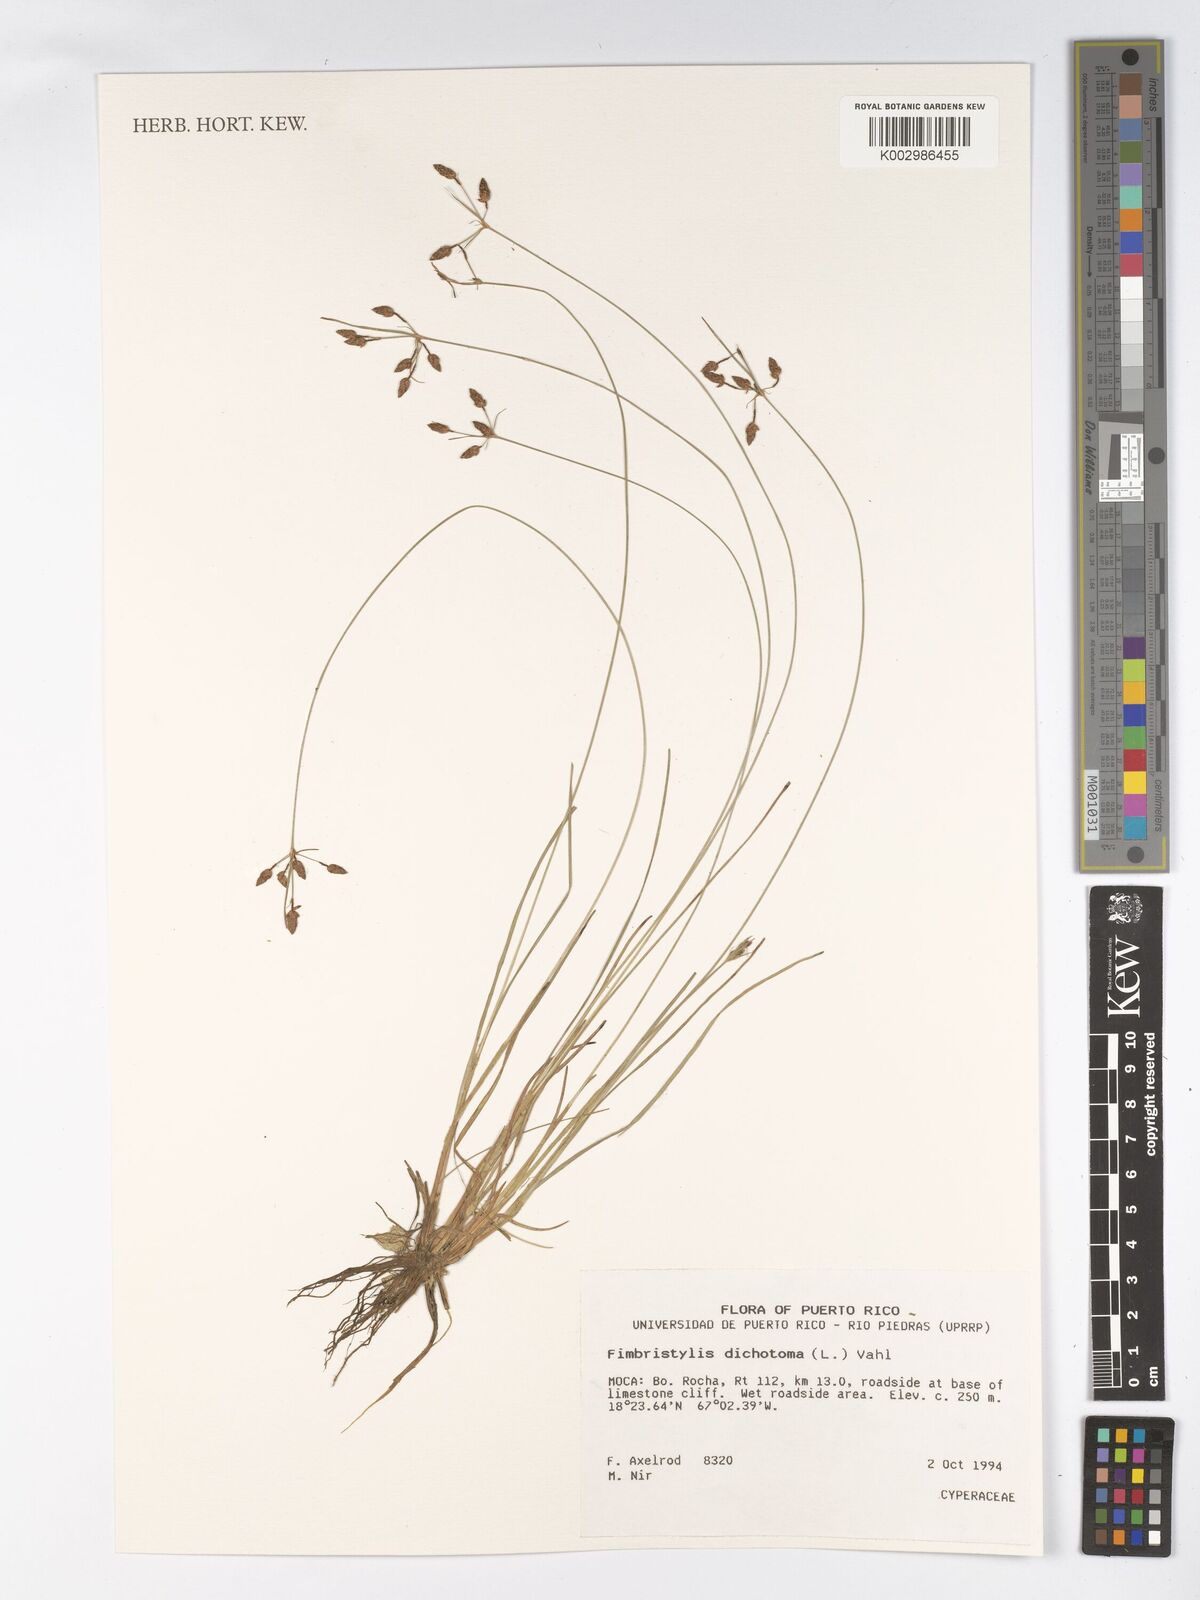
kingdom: Plantae
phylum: Tracheophyta
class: Liliopsida
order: Poales
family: Cyperaceae
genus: Fimbristylis
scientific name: Fimbristylis dichotoma
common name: Forked fimbry
